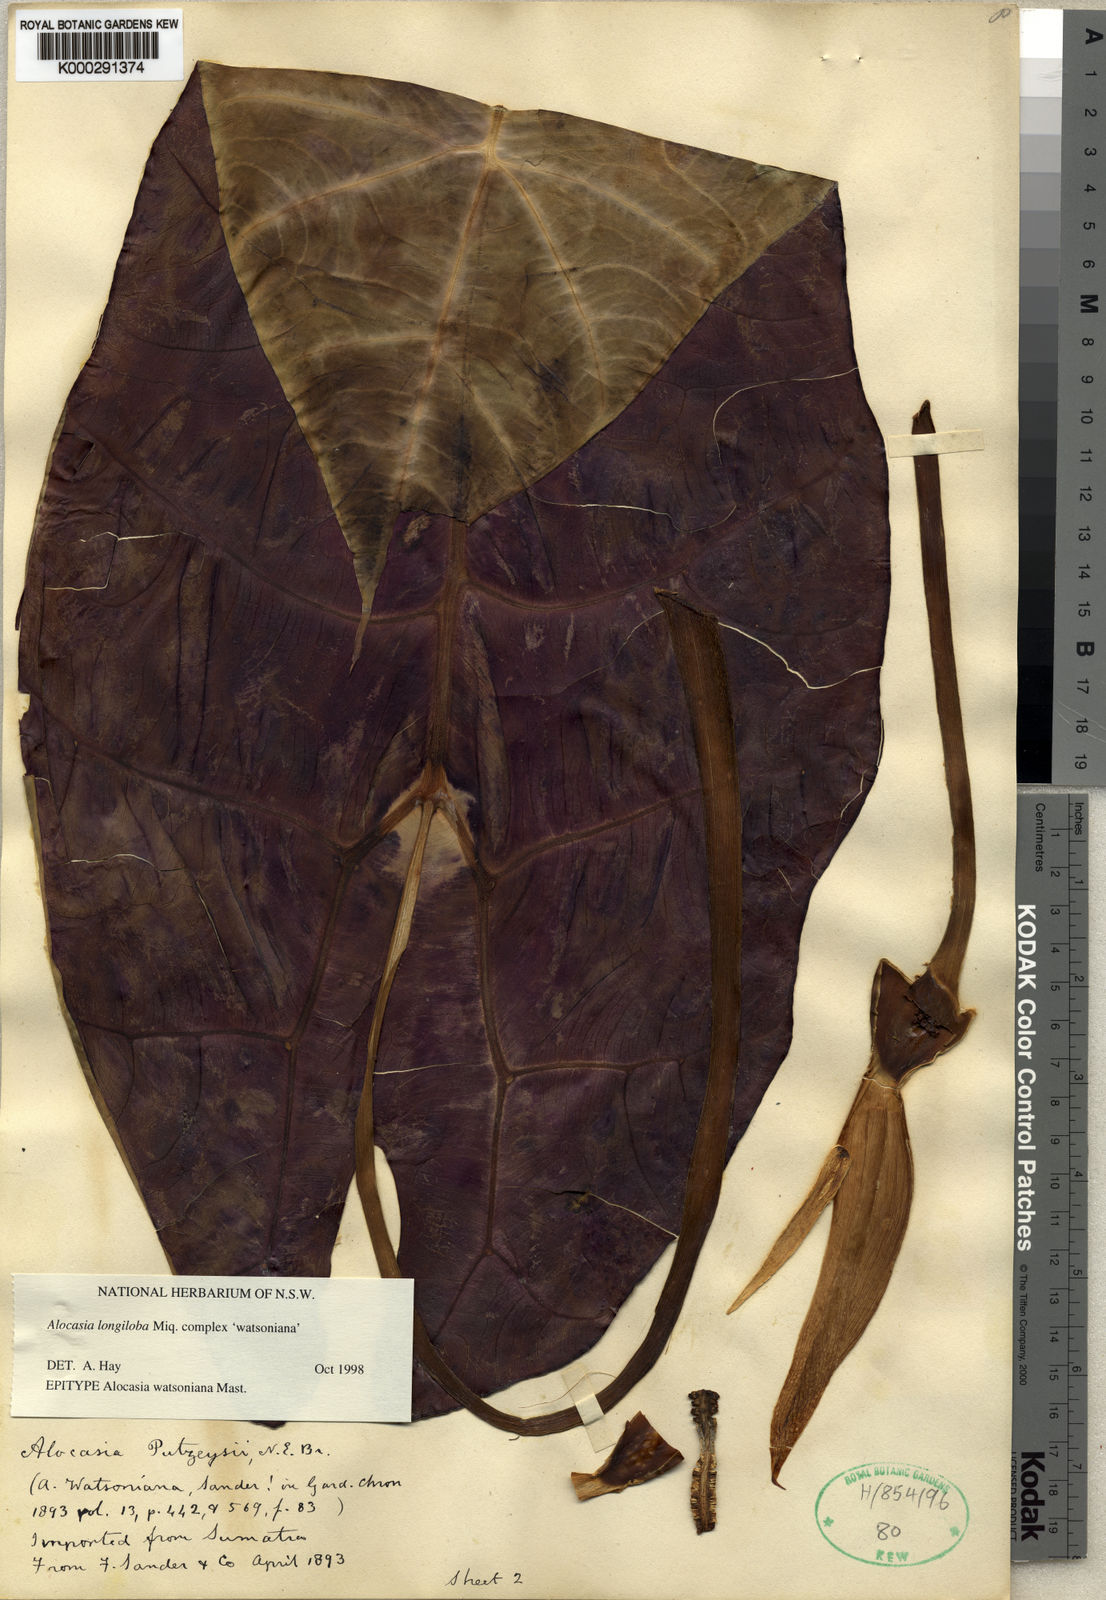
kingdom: Plantae
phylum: Tracheophyta
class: Liliopsida
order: Alismatales
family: Araceae
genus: Alocasia
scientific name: Alocasia longiloba
